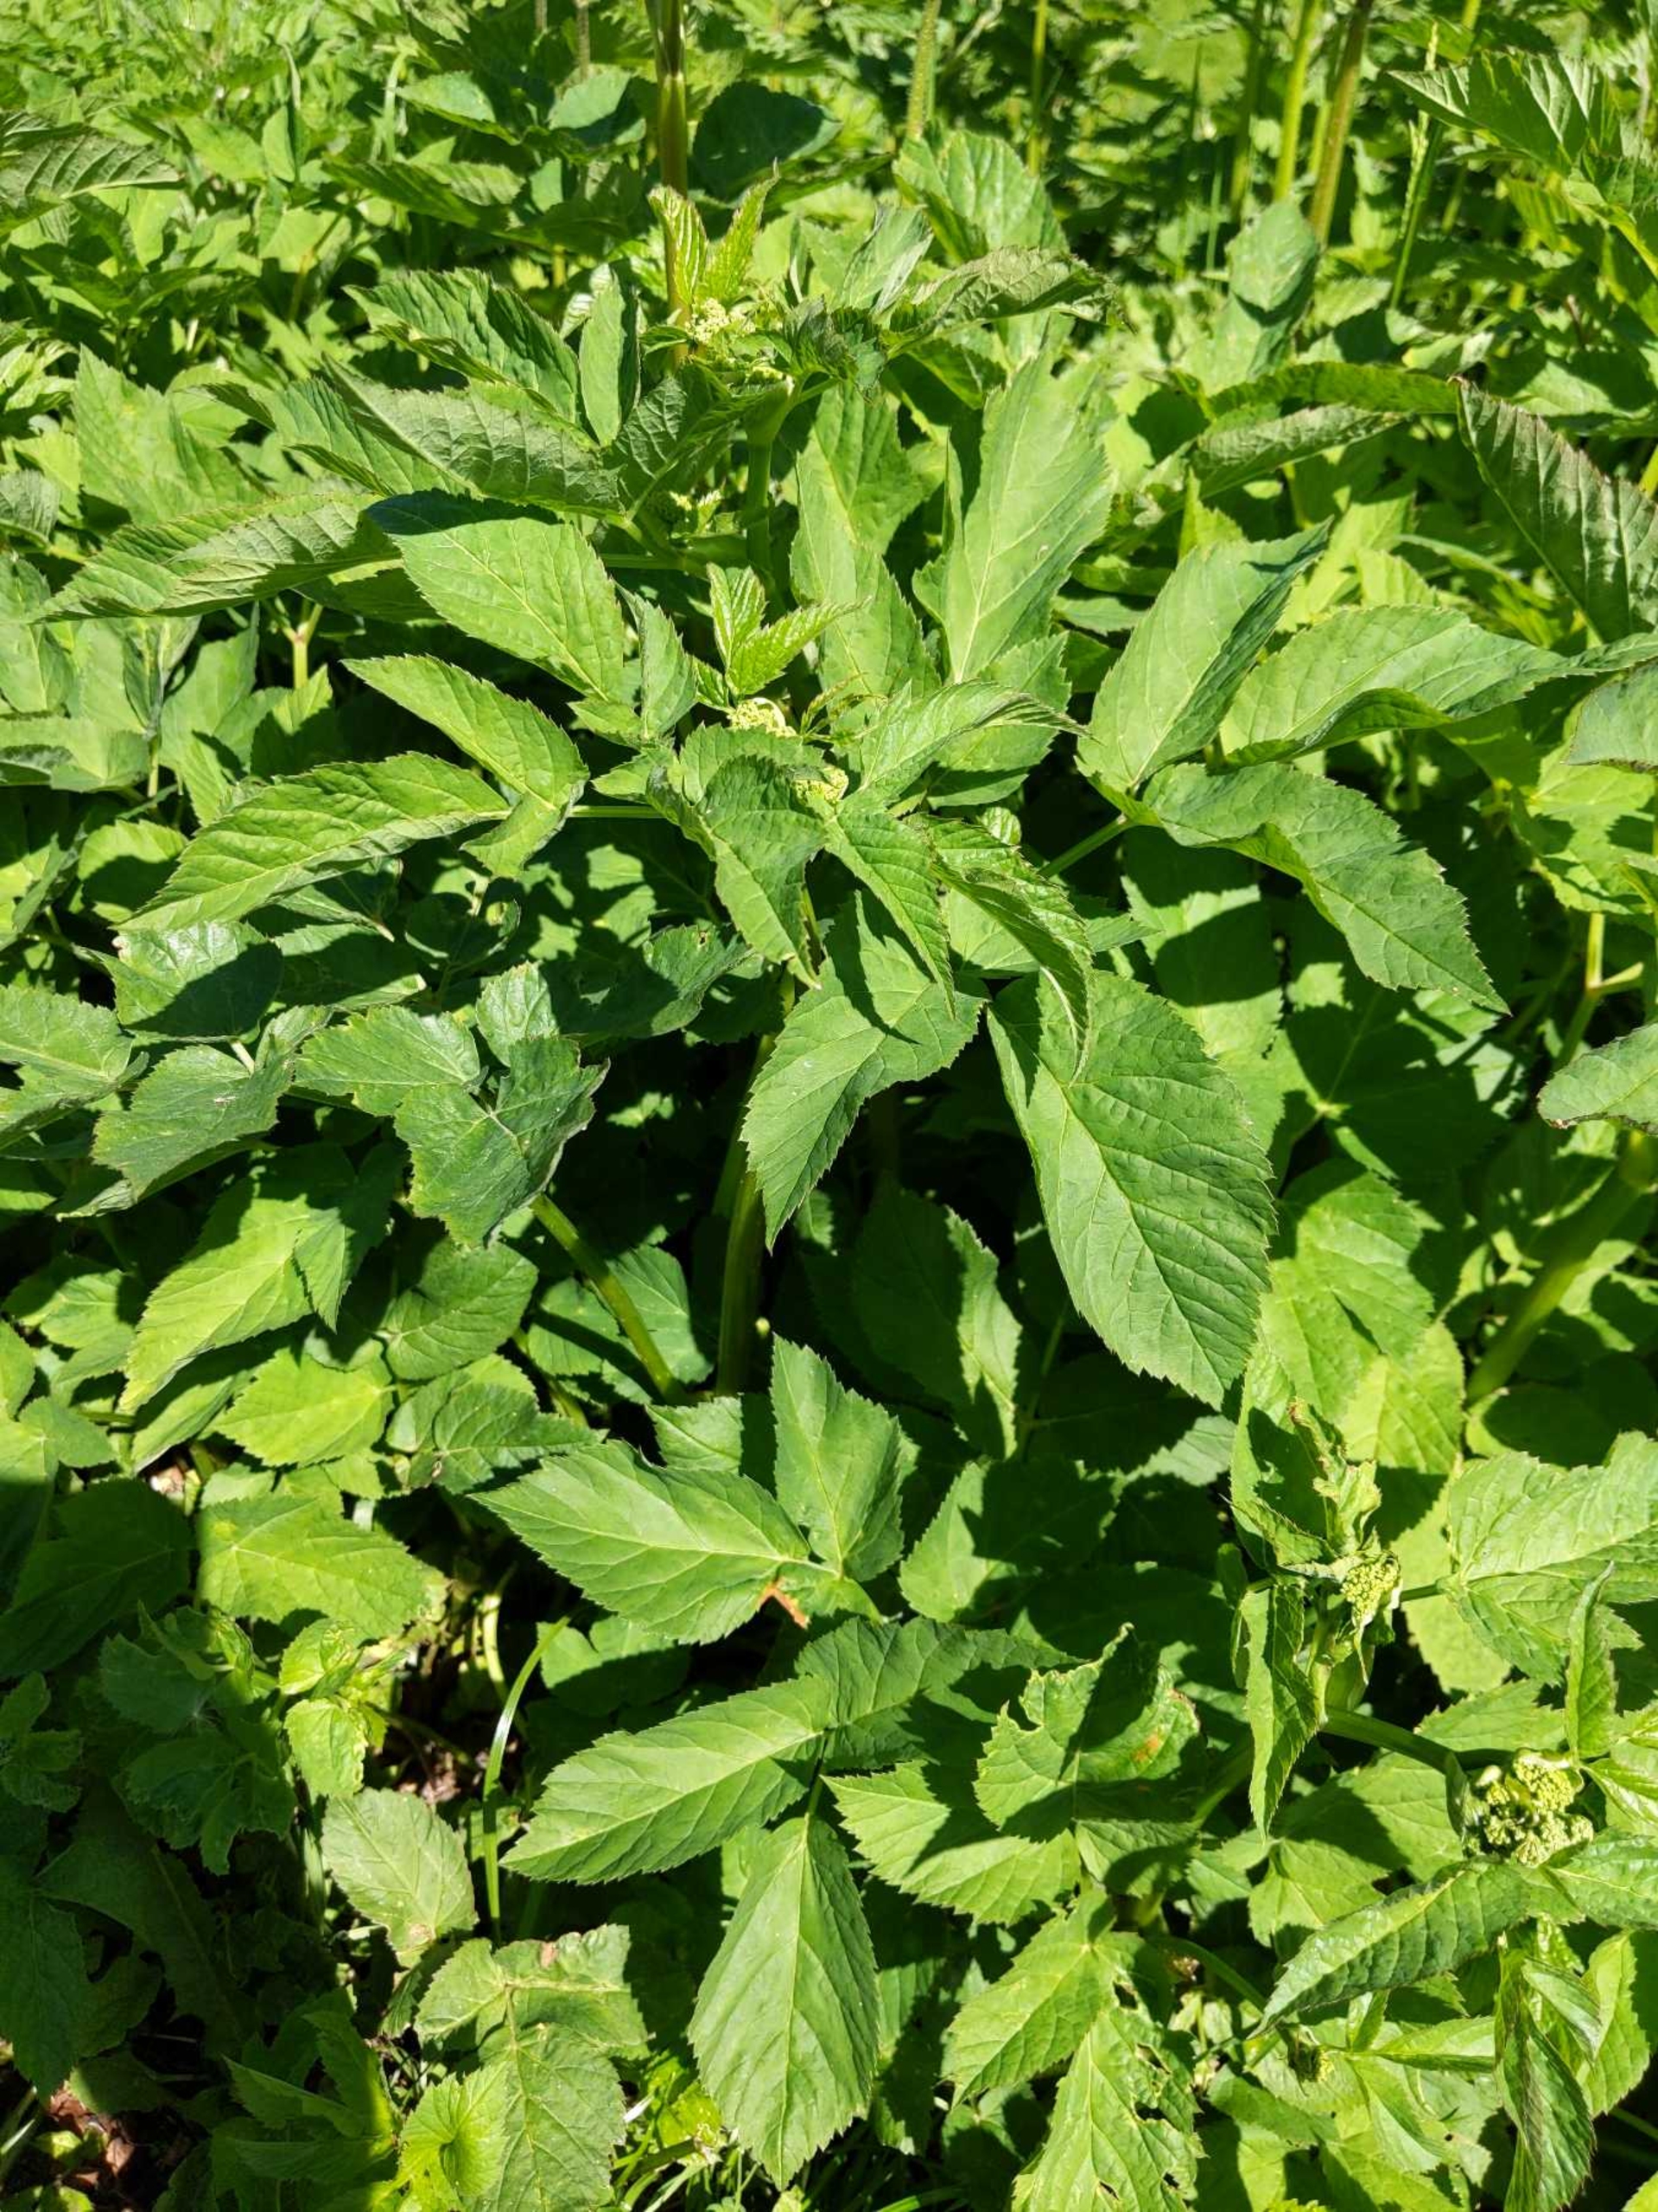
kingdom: Plantae
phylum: Tracheophyta
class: Magnoliopsida
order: Apiales
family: Apiaceae
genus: Aegopodium
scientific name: Aegopodium podagraria
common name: Skvalderkål
